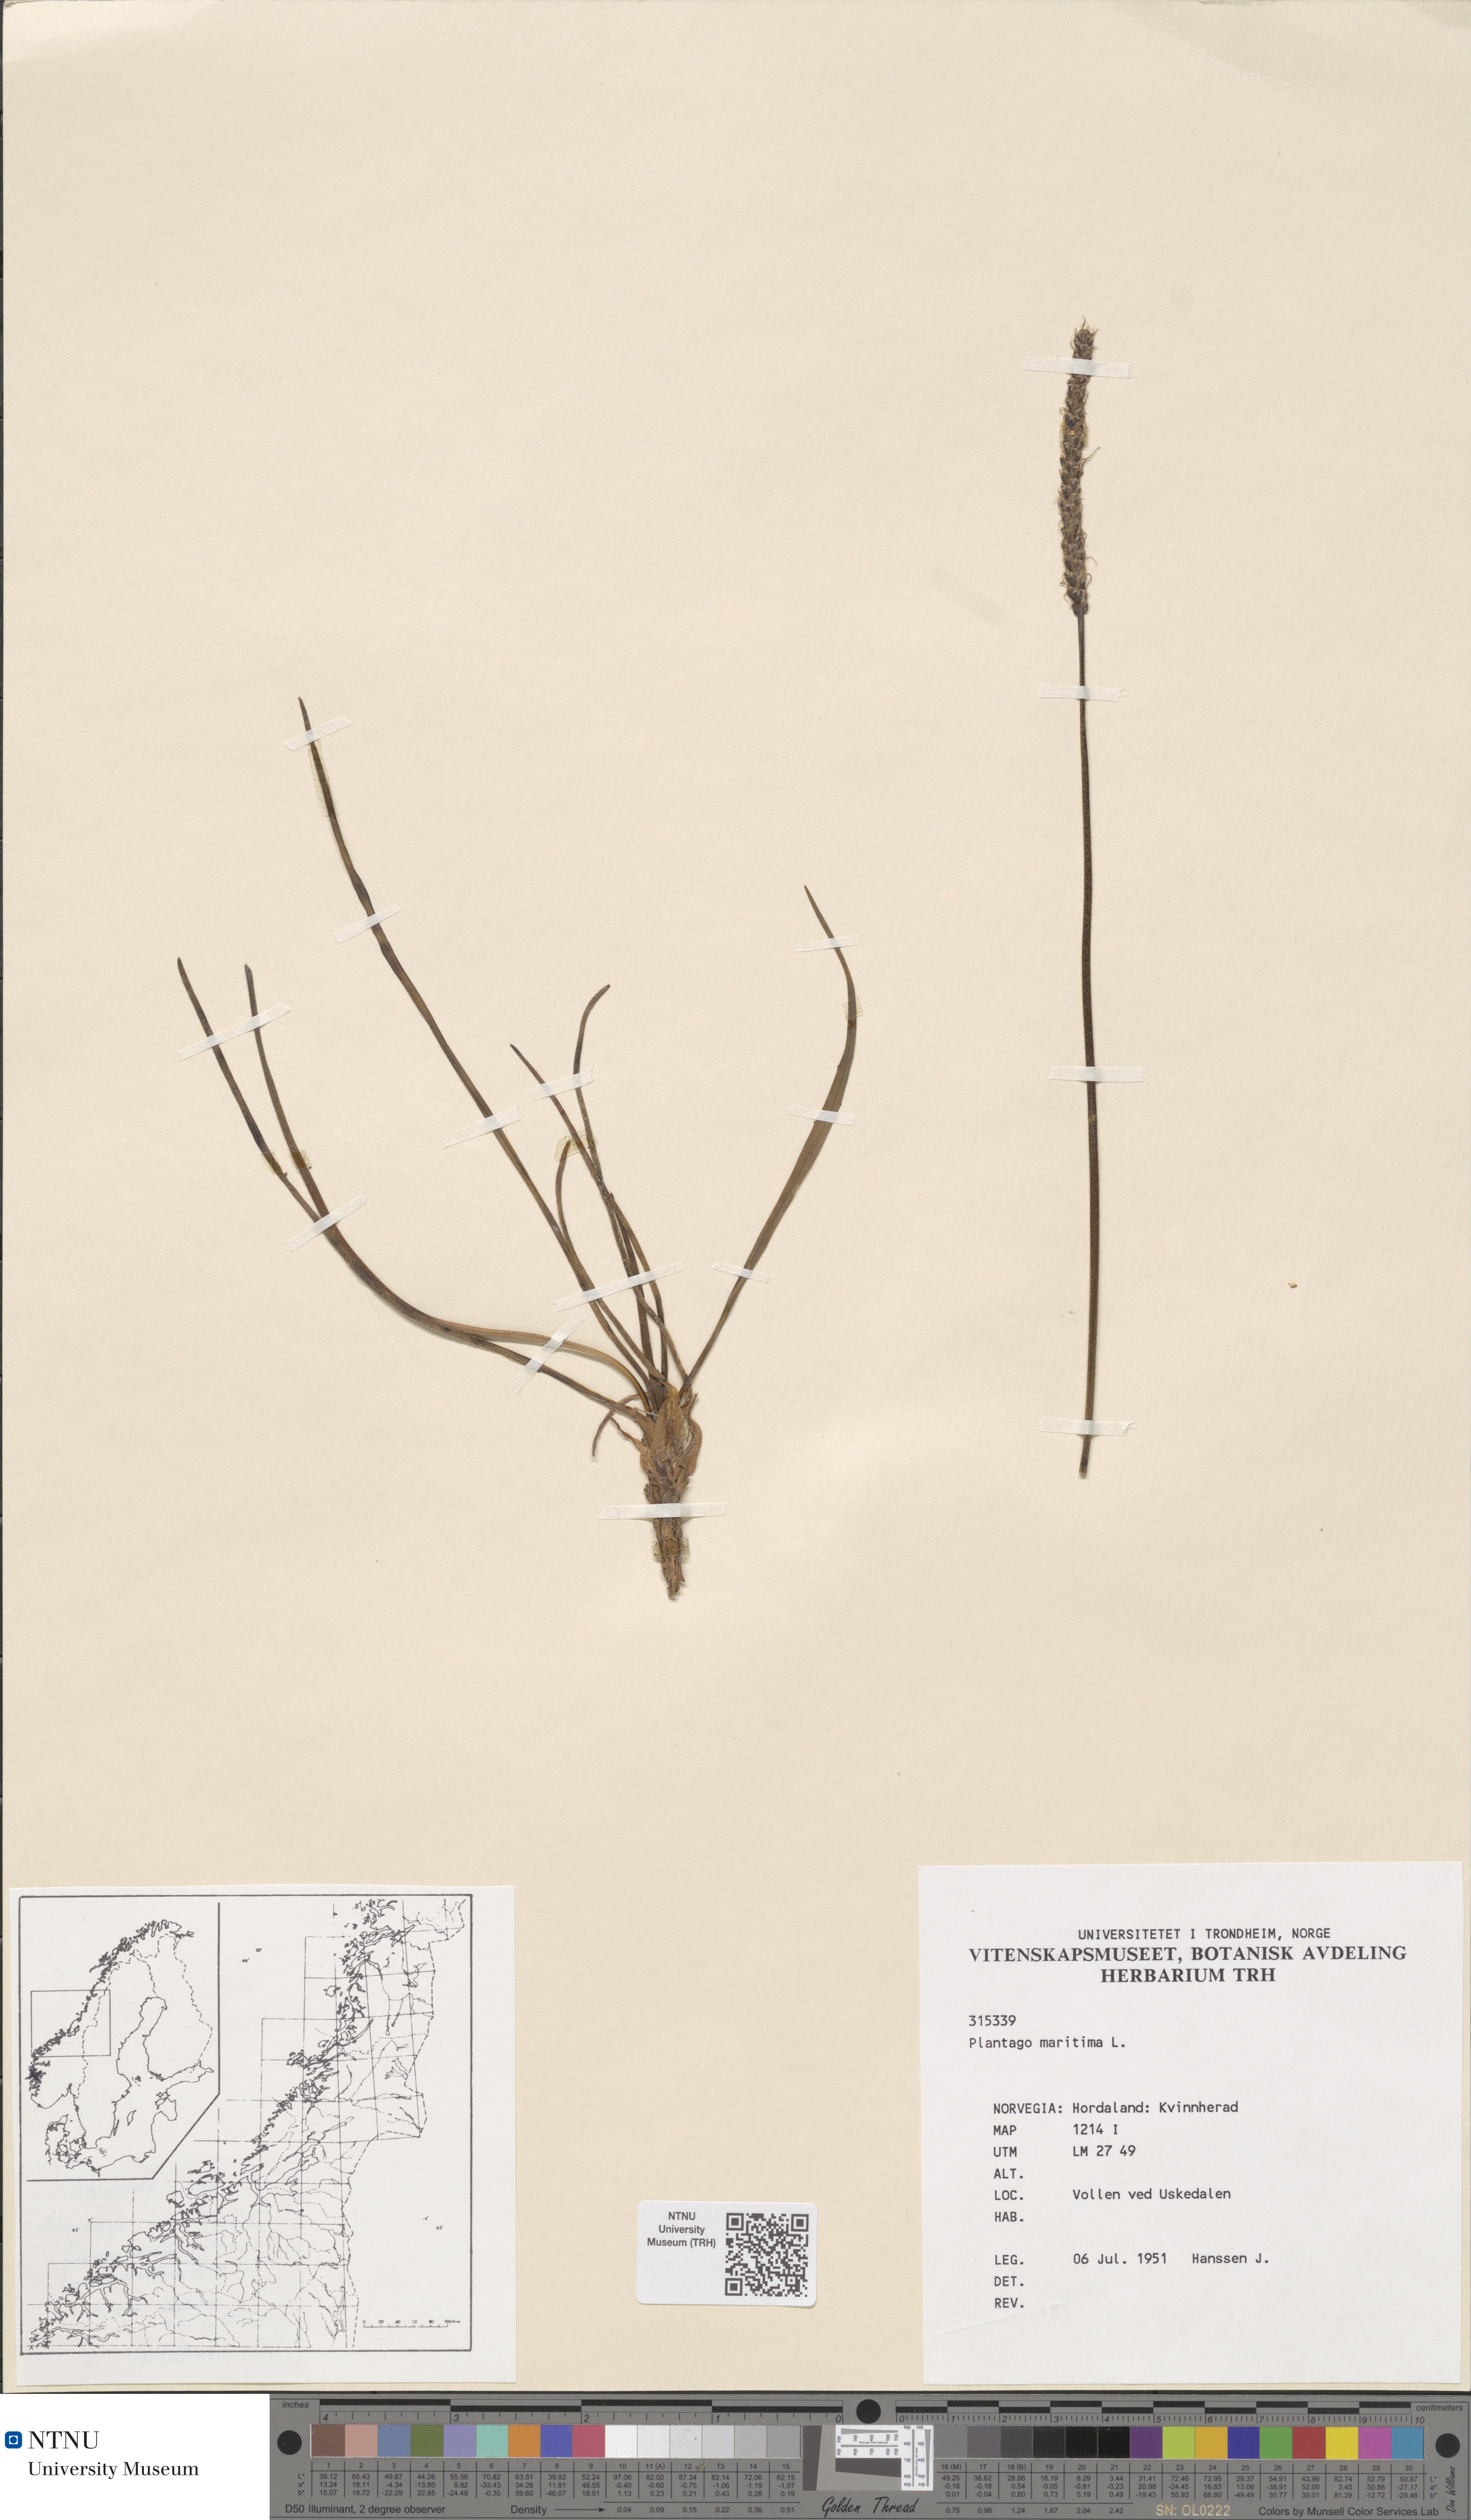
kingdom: Plantae
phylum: Tracheophyta
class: Magnoliopsida
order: Lamiales
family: Plantaginaceae
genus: Plantago
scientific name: Plantago maritima
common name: Sea plantain
